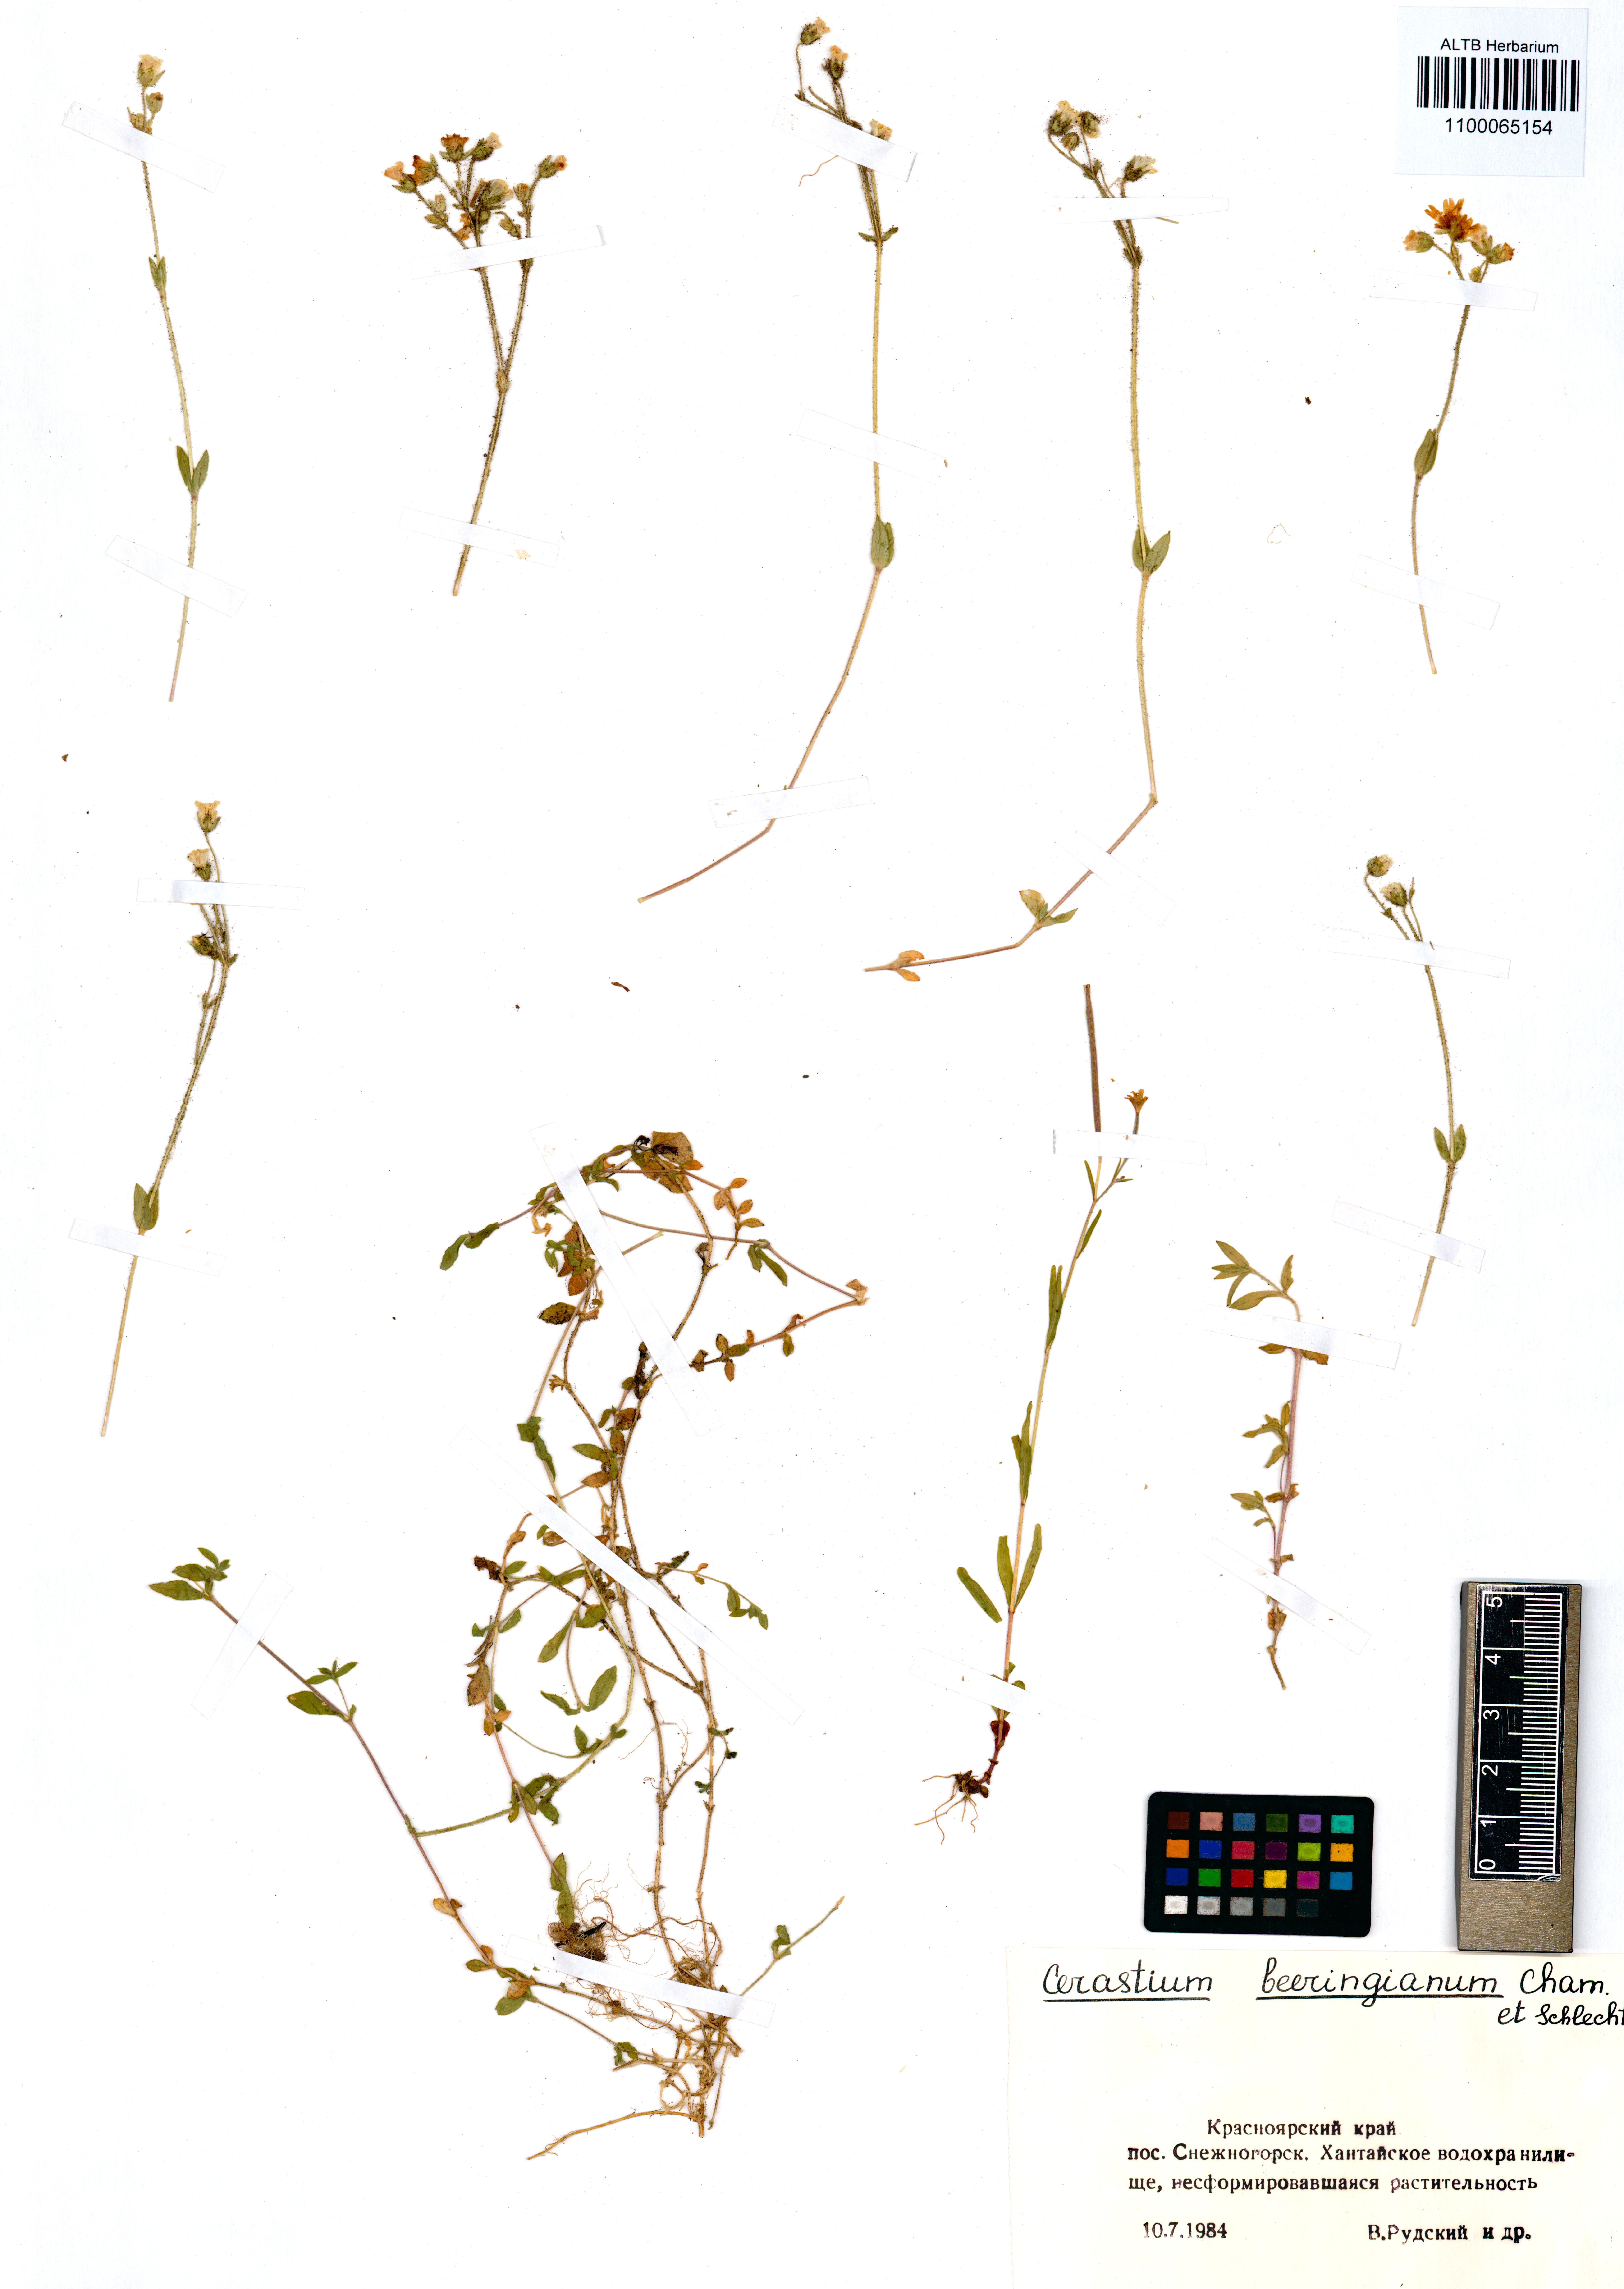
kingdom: Plantae
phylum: Tracheophyta
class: Magnoliopsida
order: Caryophyllales
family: Caryophyllaceae
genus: Cerastium
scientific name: Cerastium beeringianum
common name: Bering mouse-ear chickweed
